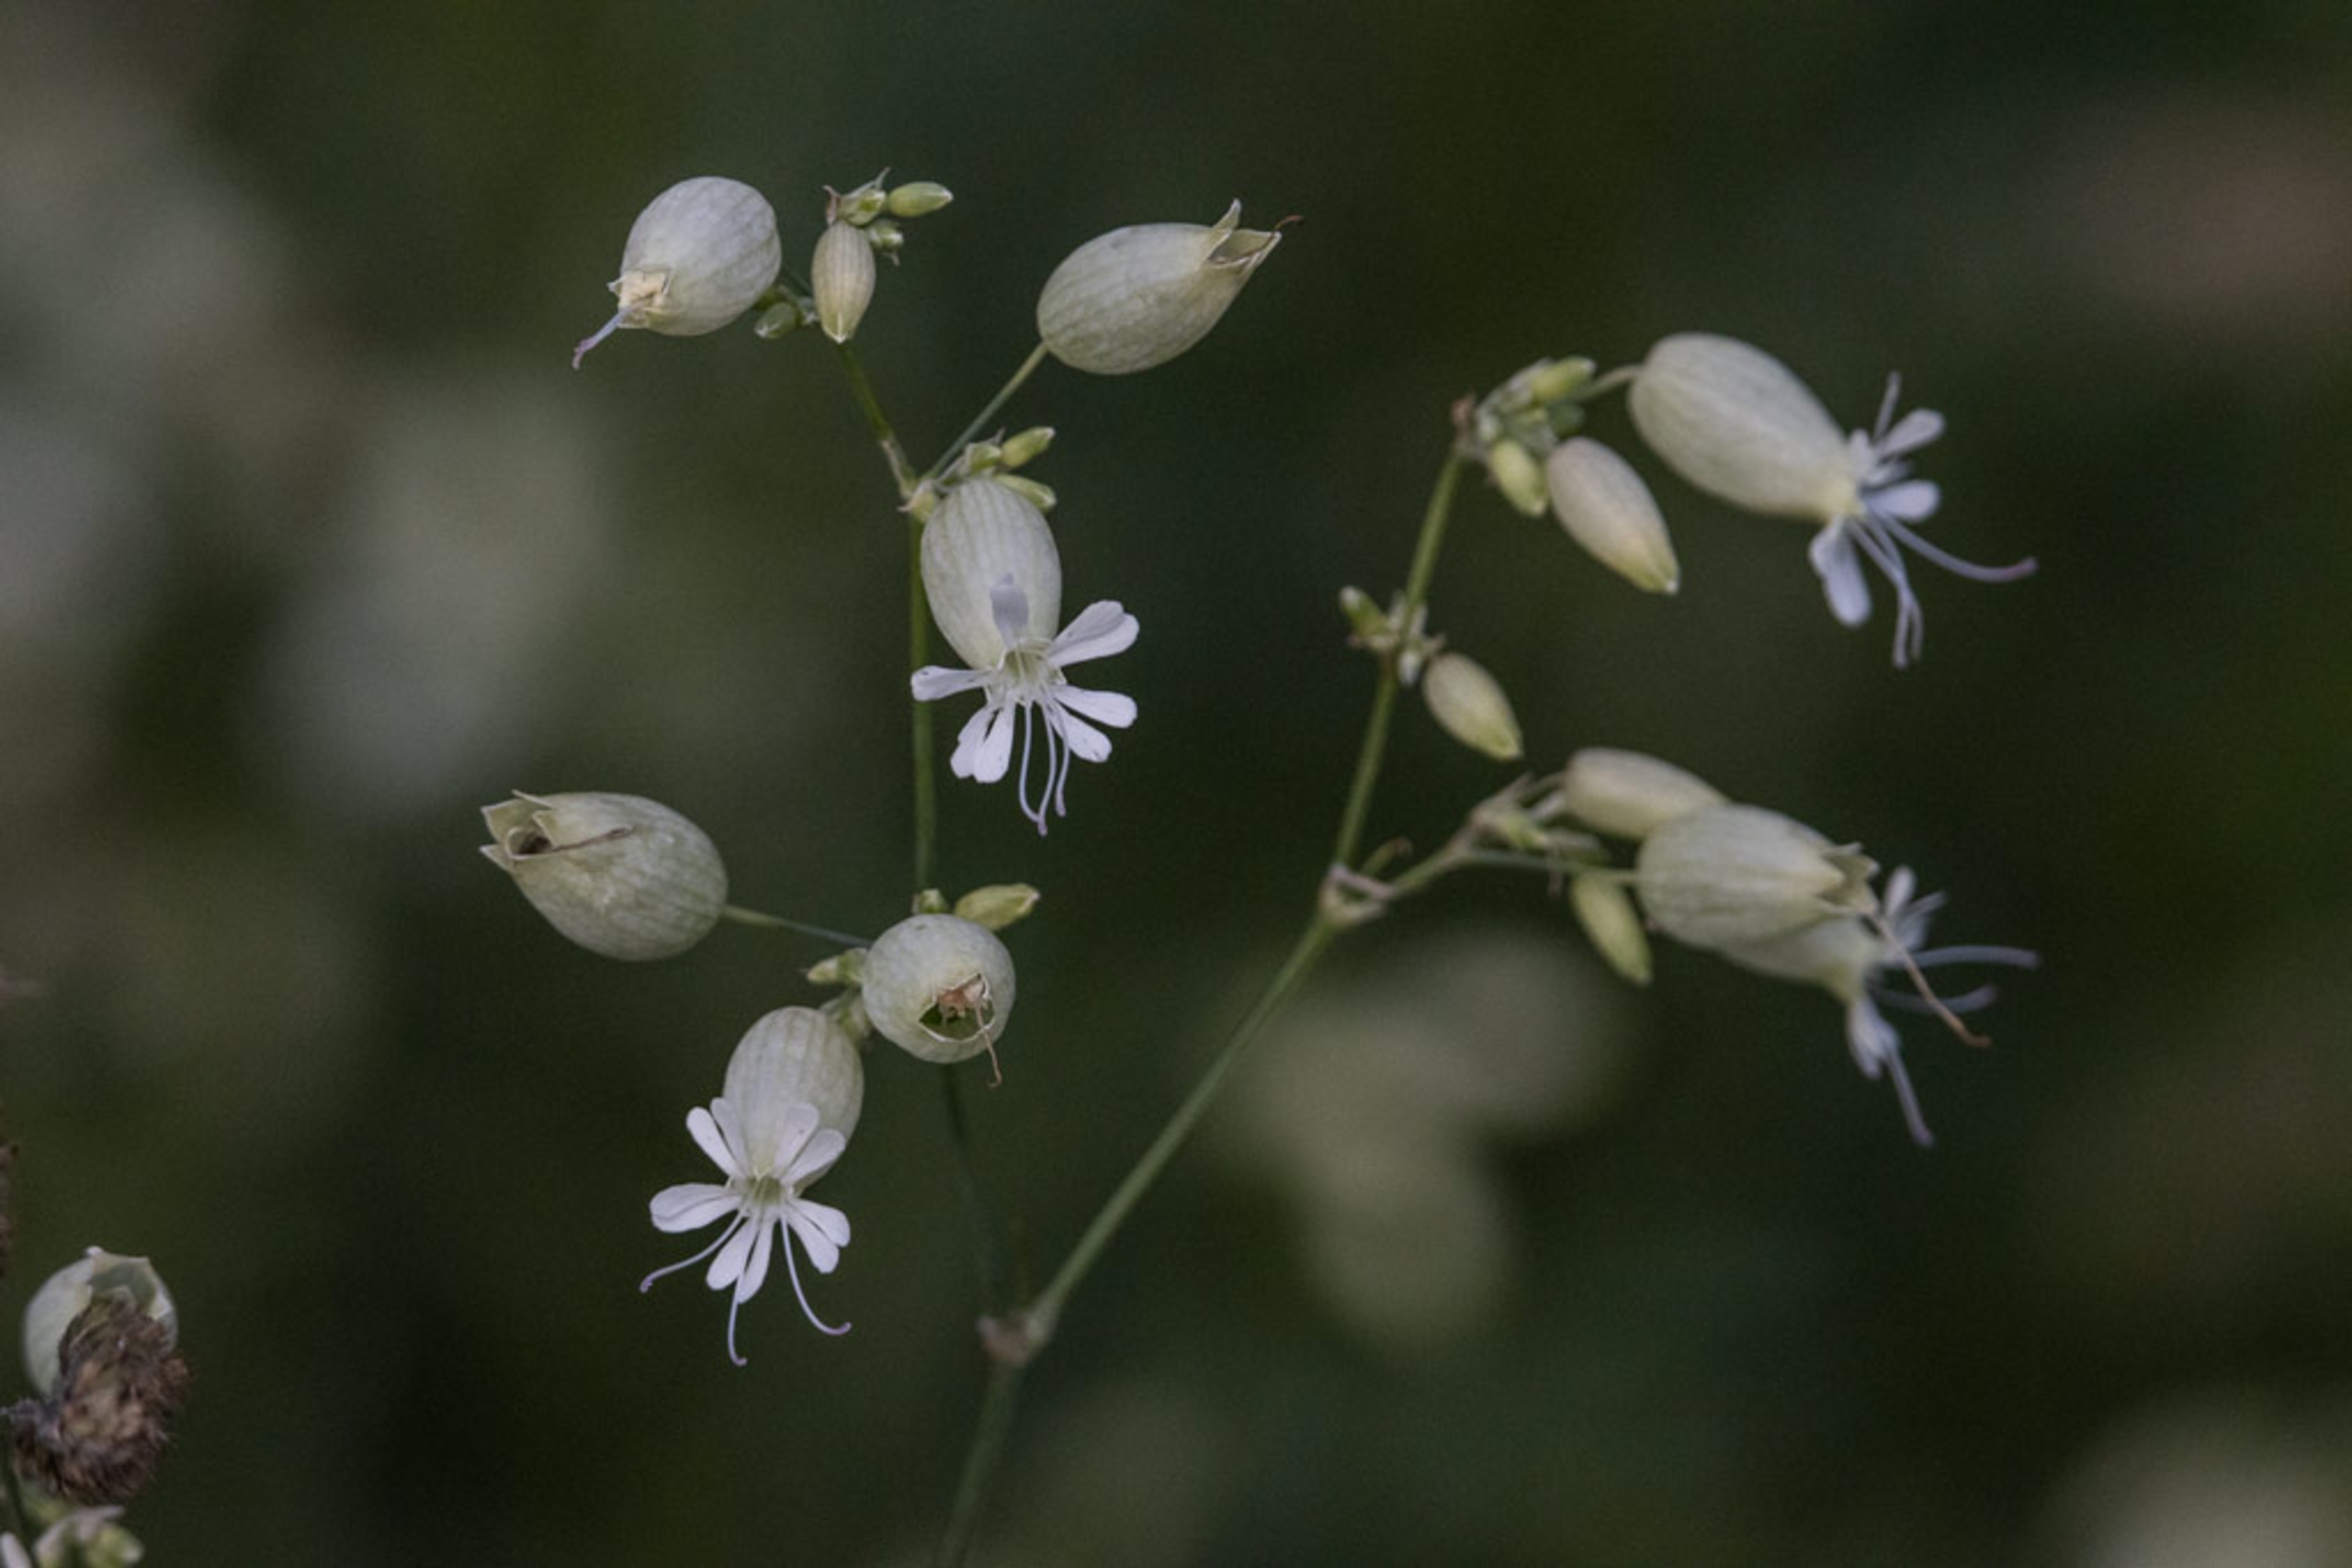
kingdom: Plantae
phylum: Tracheophyta
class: Magnoliopsida
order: Caryophyllales
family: Caryophyllaceae
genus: Silene
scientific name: Silene vulgaris
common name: Blæresmælde
